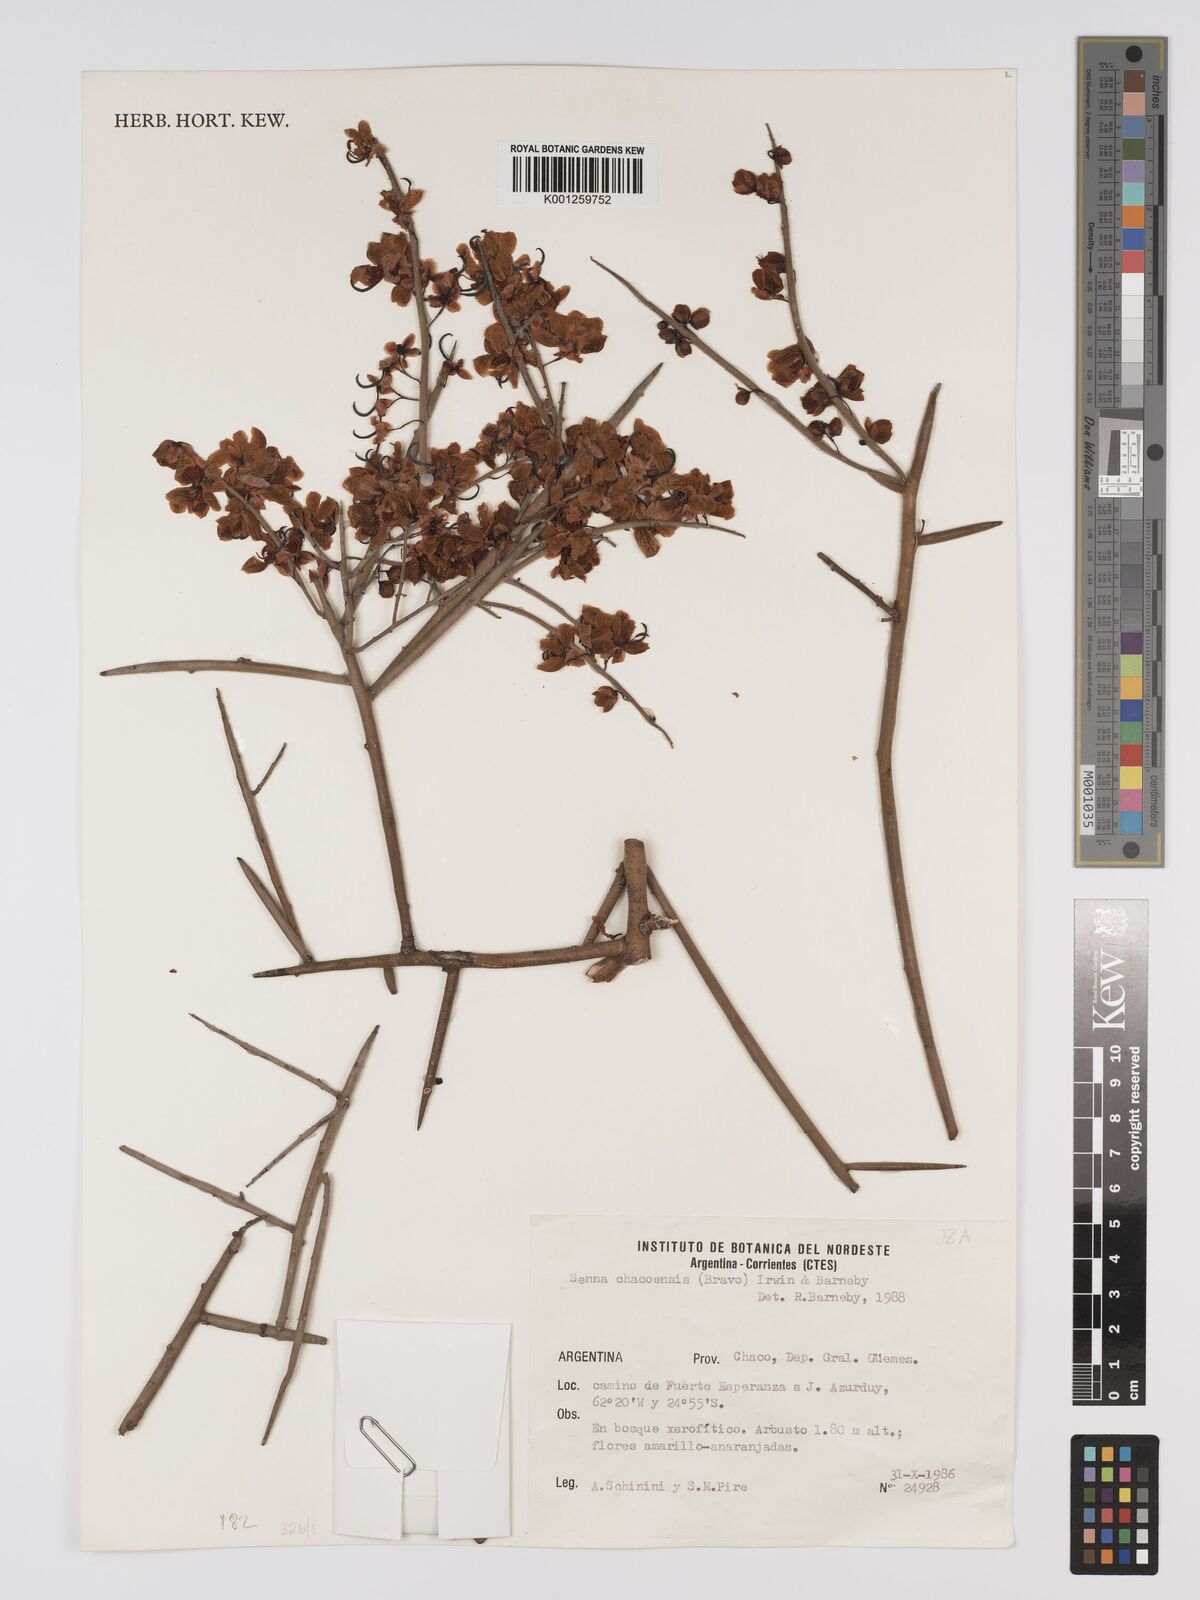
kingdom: Plantae
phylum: Tracheophyta
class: Magnoliopsida
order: Fabales
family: Fabaceae
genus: Senna
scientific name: Senna spiniflora
